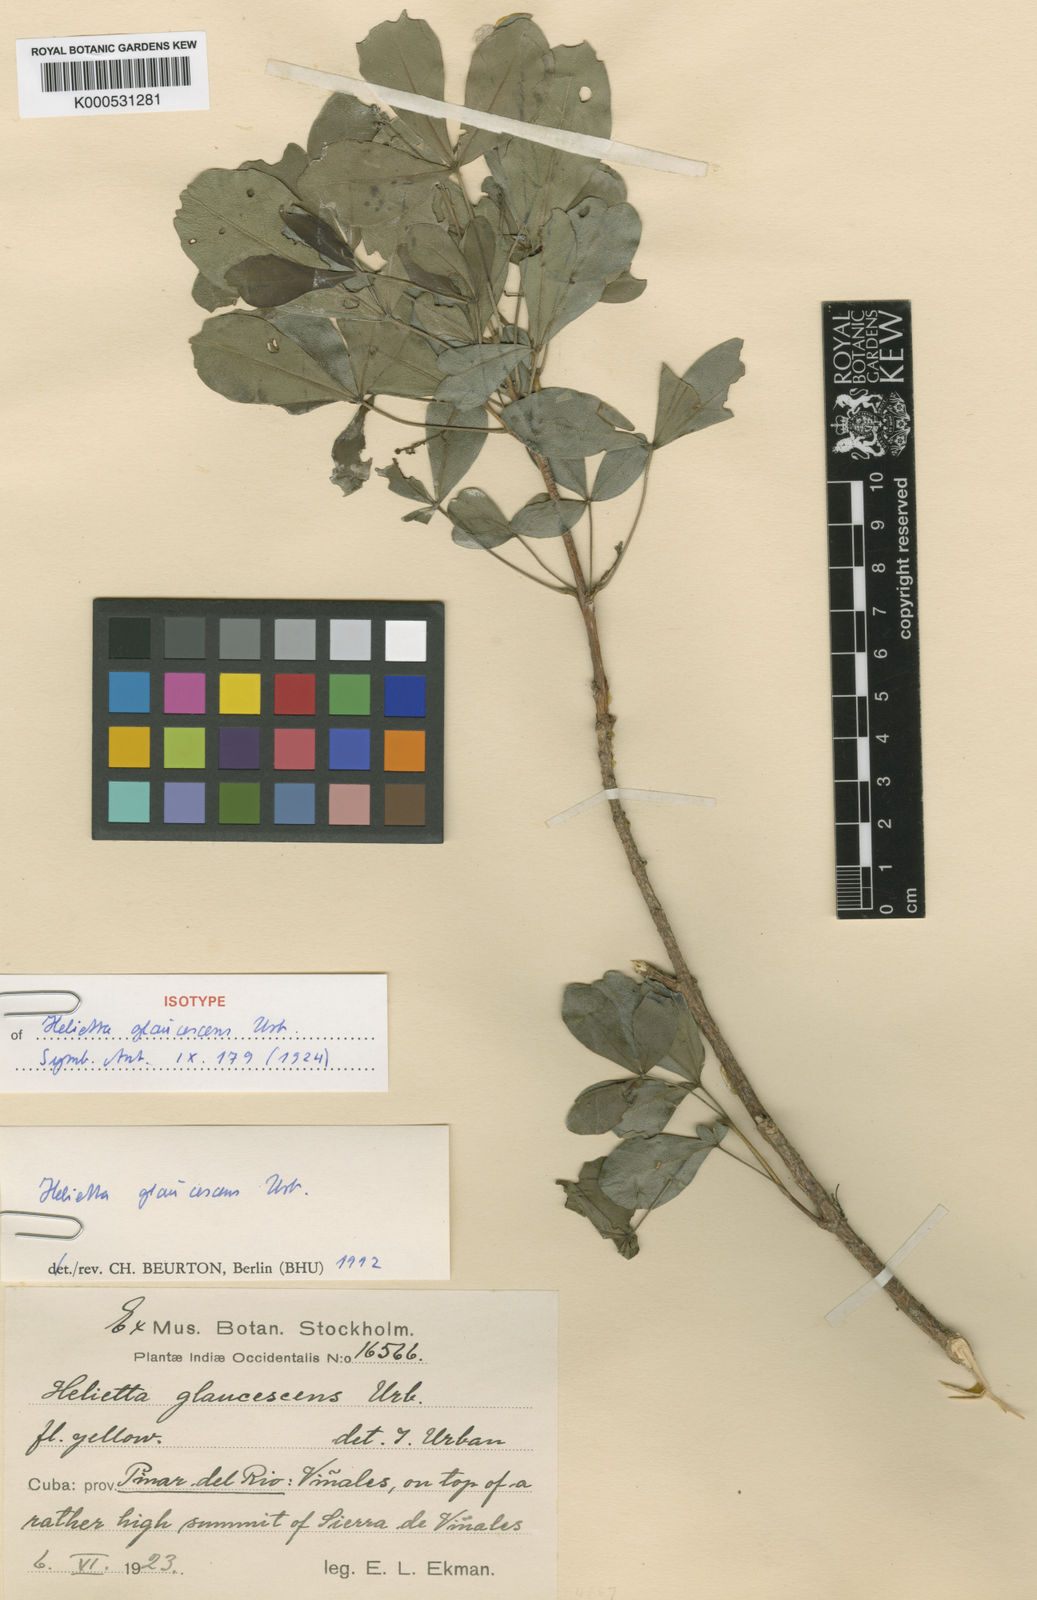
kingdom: Plantae
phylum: Tracheophyta
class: Magnoliopsida
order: Sapindales
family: Rutaceae
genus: Helietta
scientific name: Helietta glaucescens
